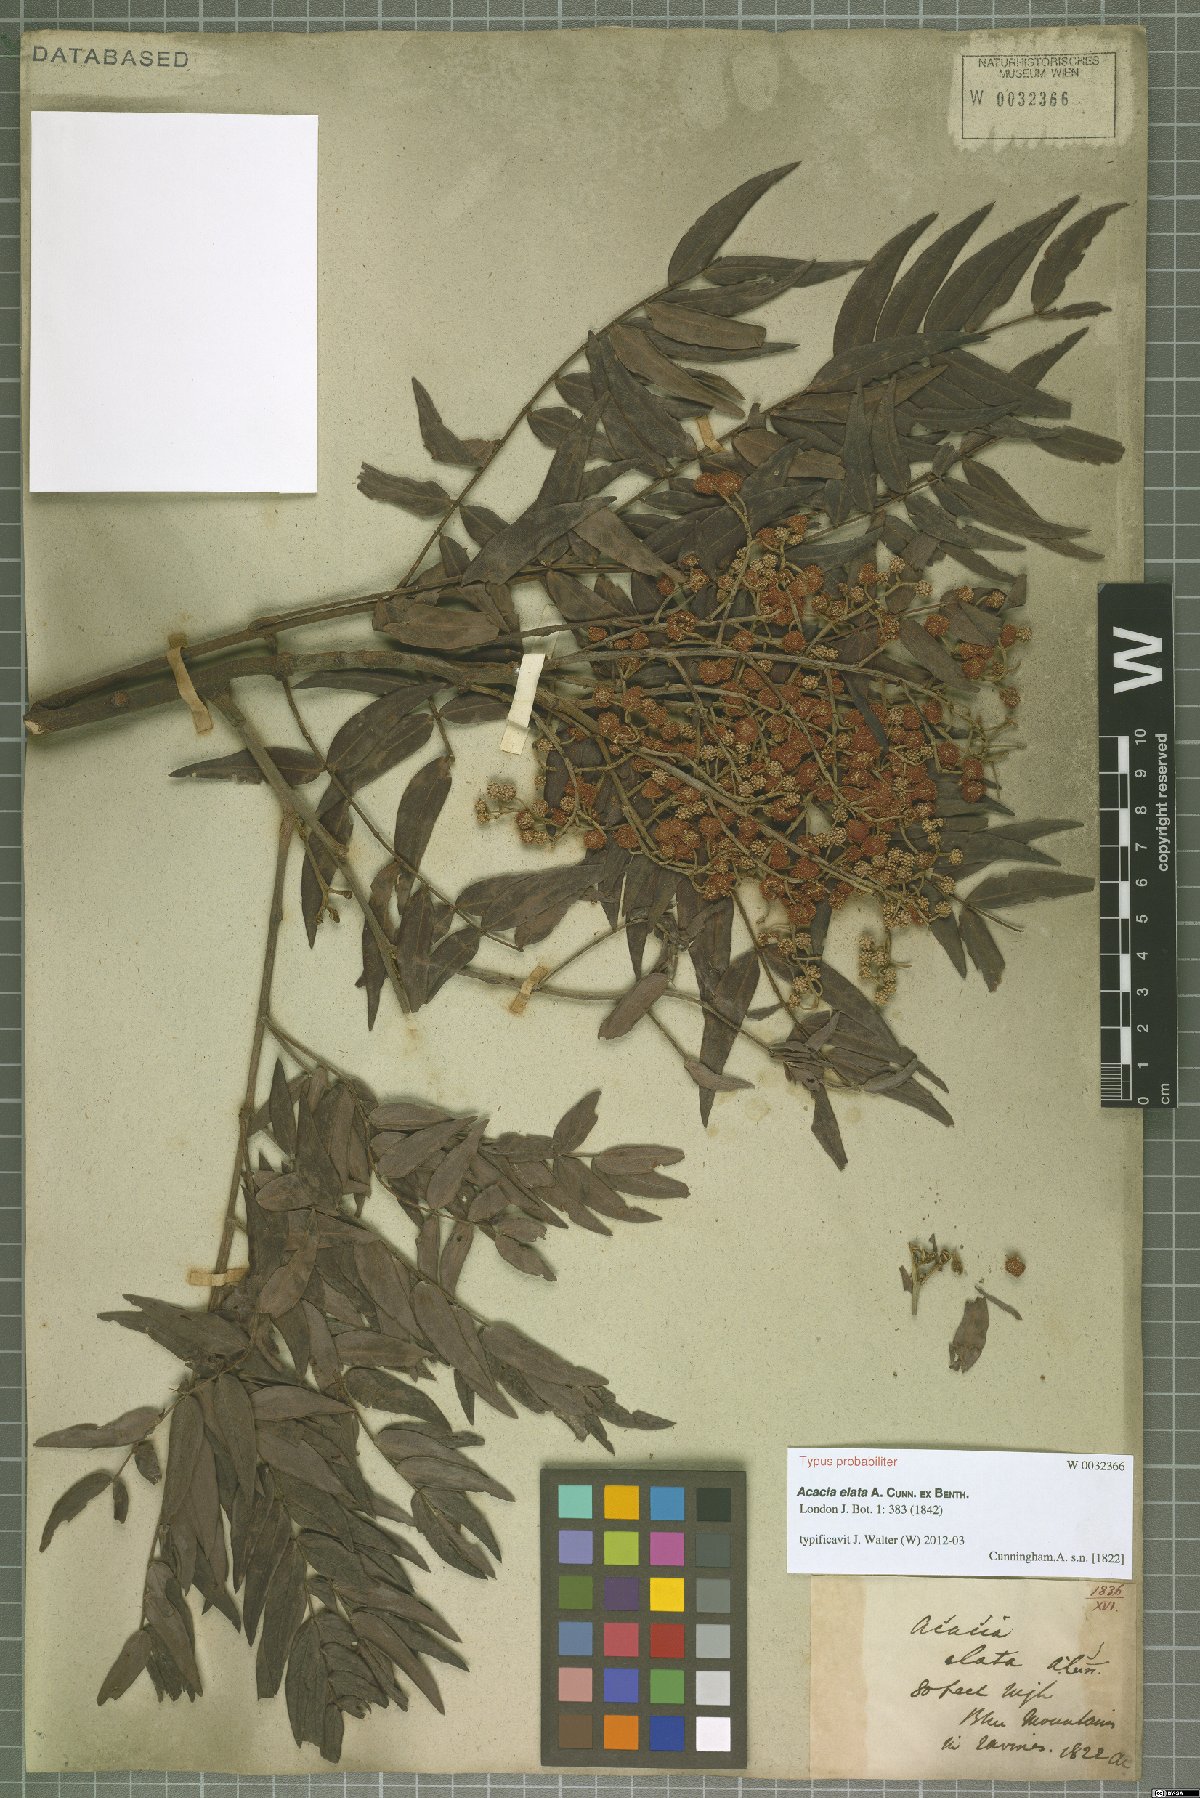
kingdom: Plantae
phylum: Tracheophyta
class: Magnoliopsida
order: Fabales
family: Fabaceae
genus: Acacia
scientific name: Acacia elata
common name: Cedar wattle
